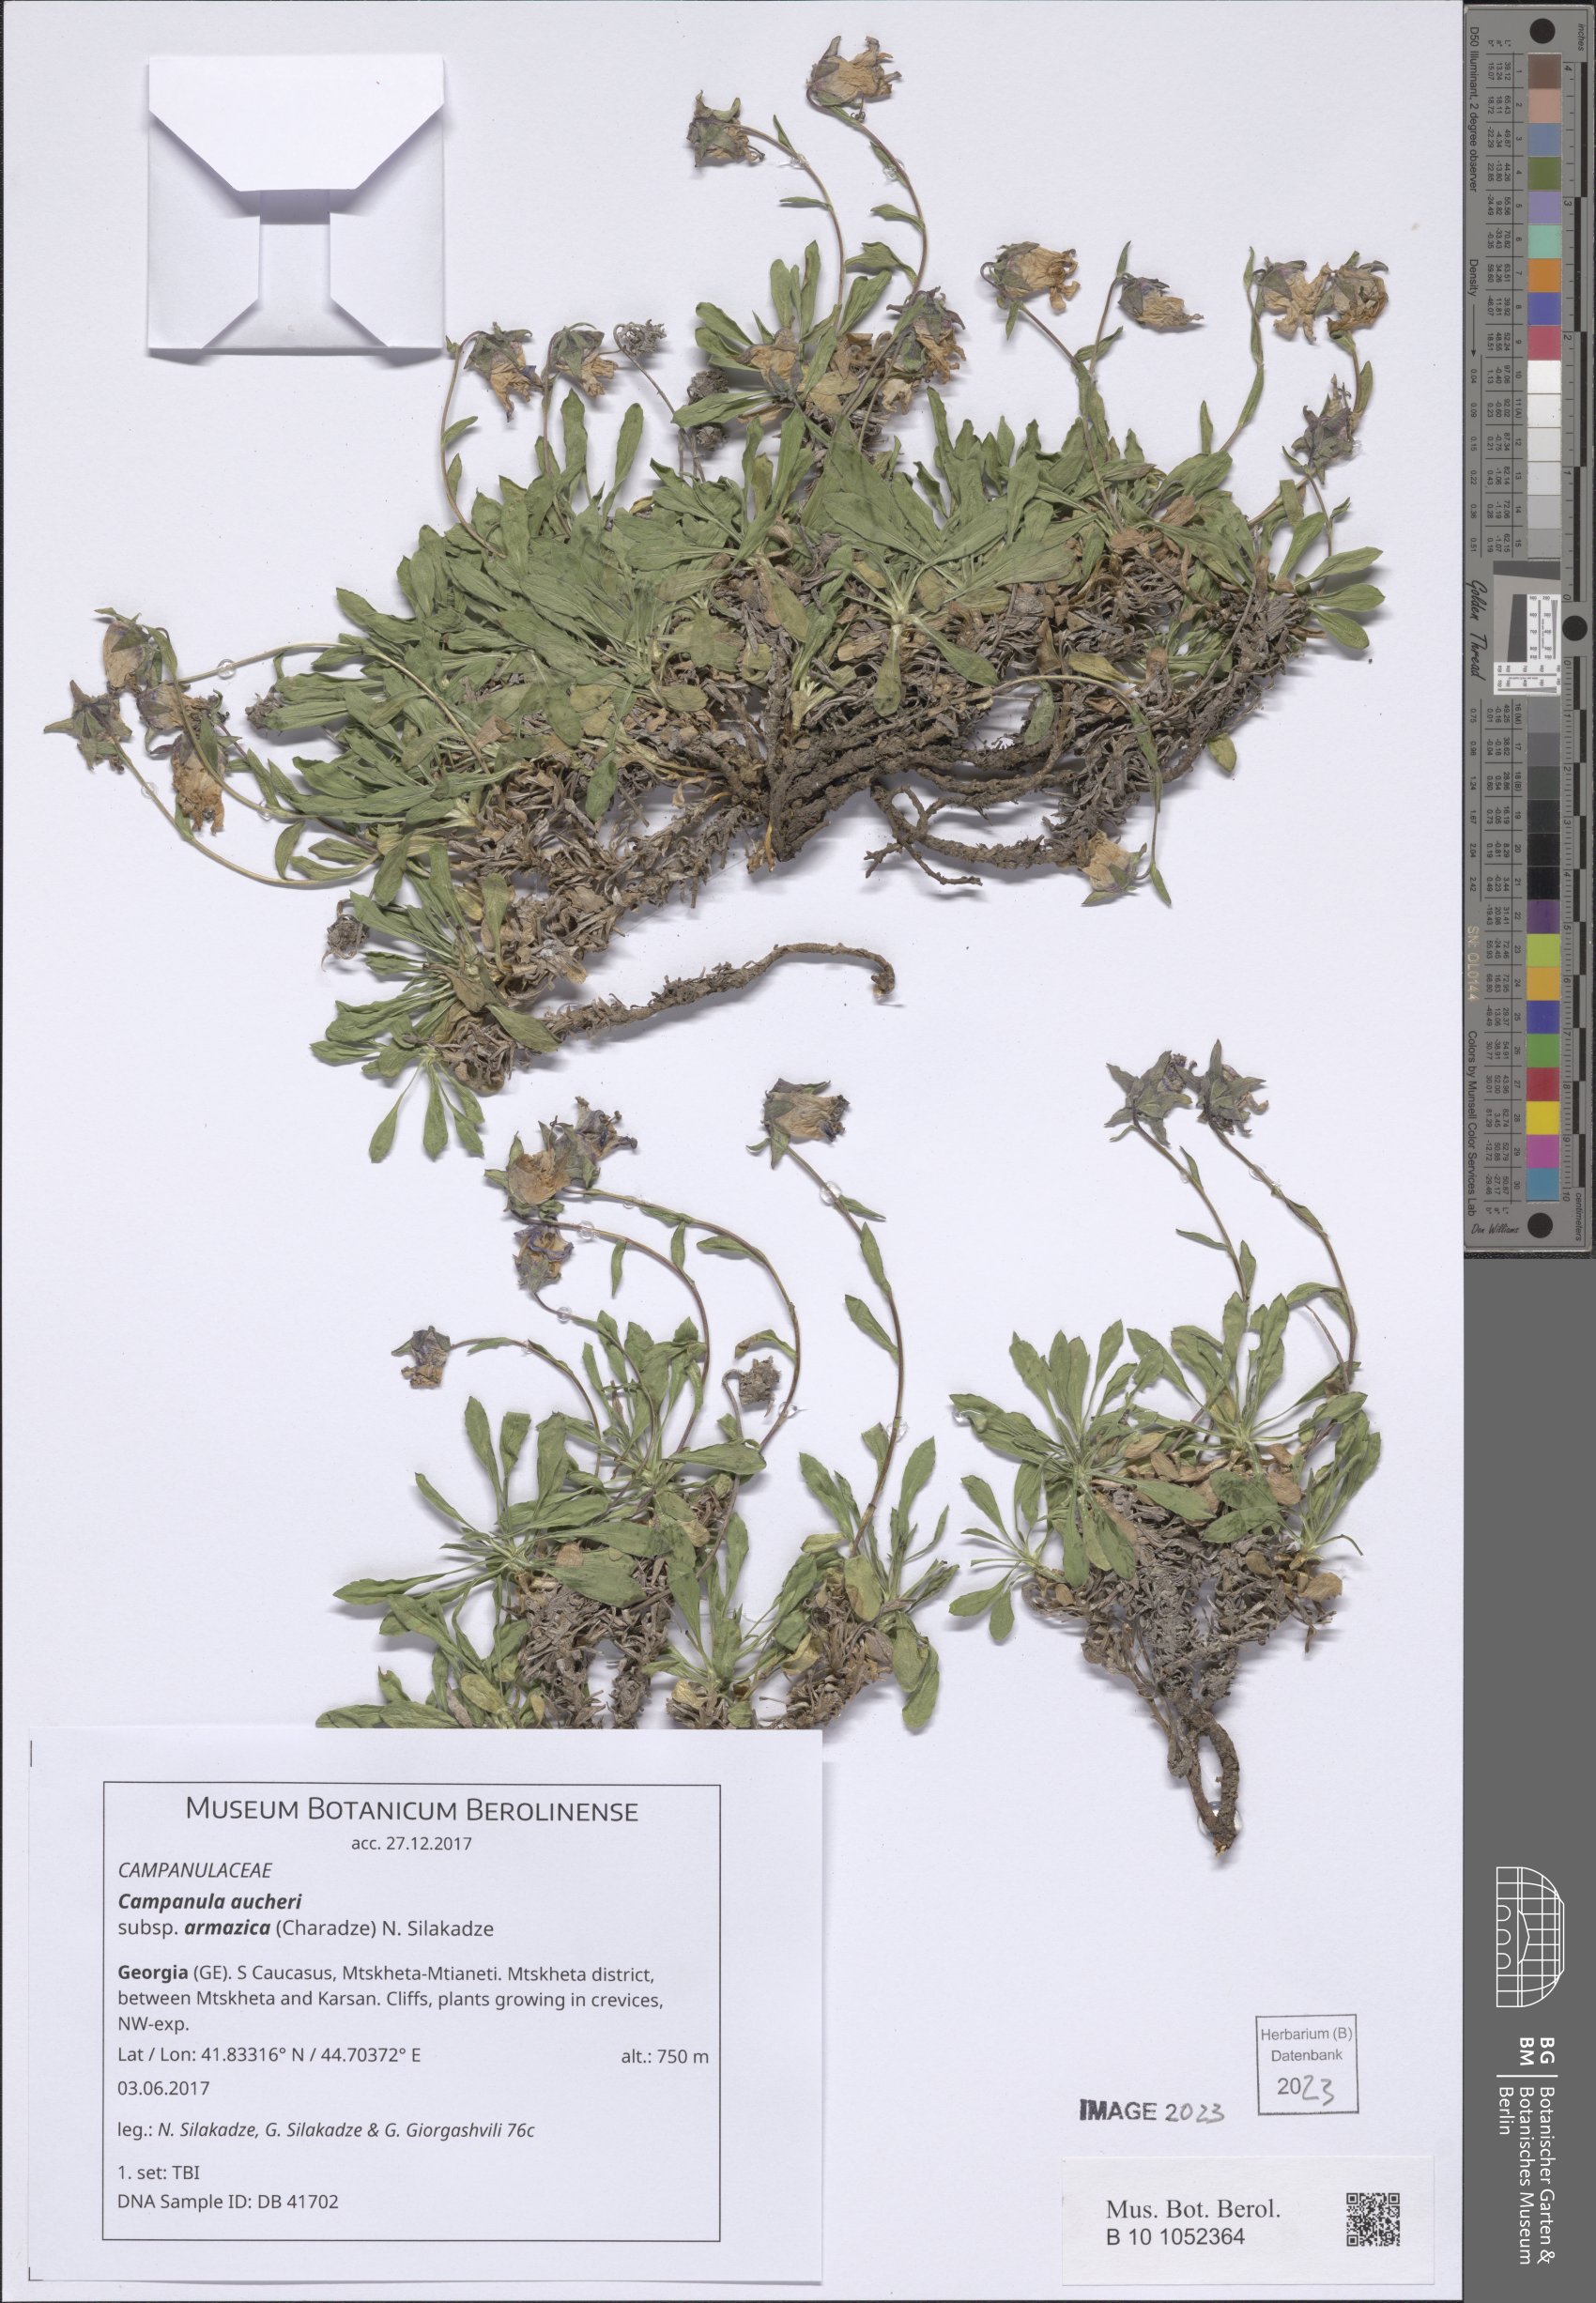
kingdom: Plantae
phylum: Tracheophyta
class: Magnoliopsida
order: Asterales
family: Campanulaceae
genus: Campanula
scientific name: Campanula saxifraga
